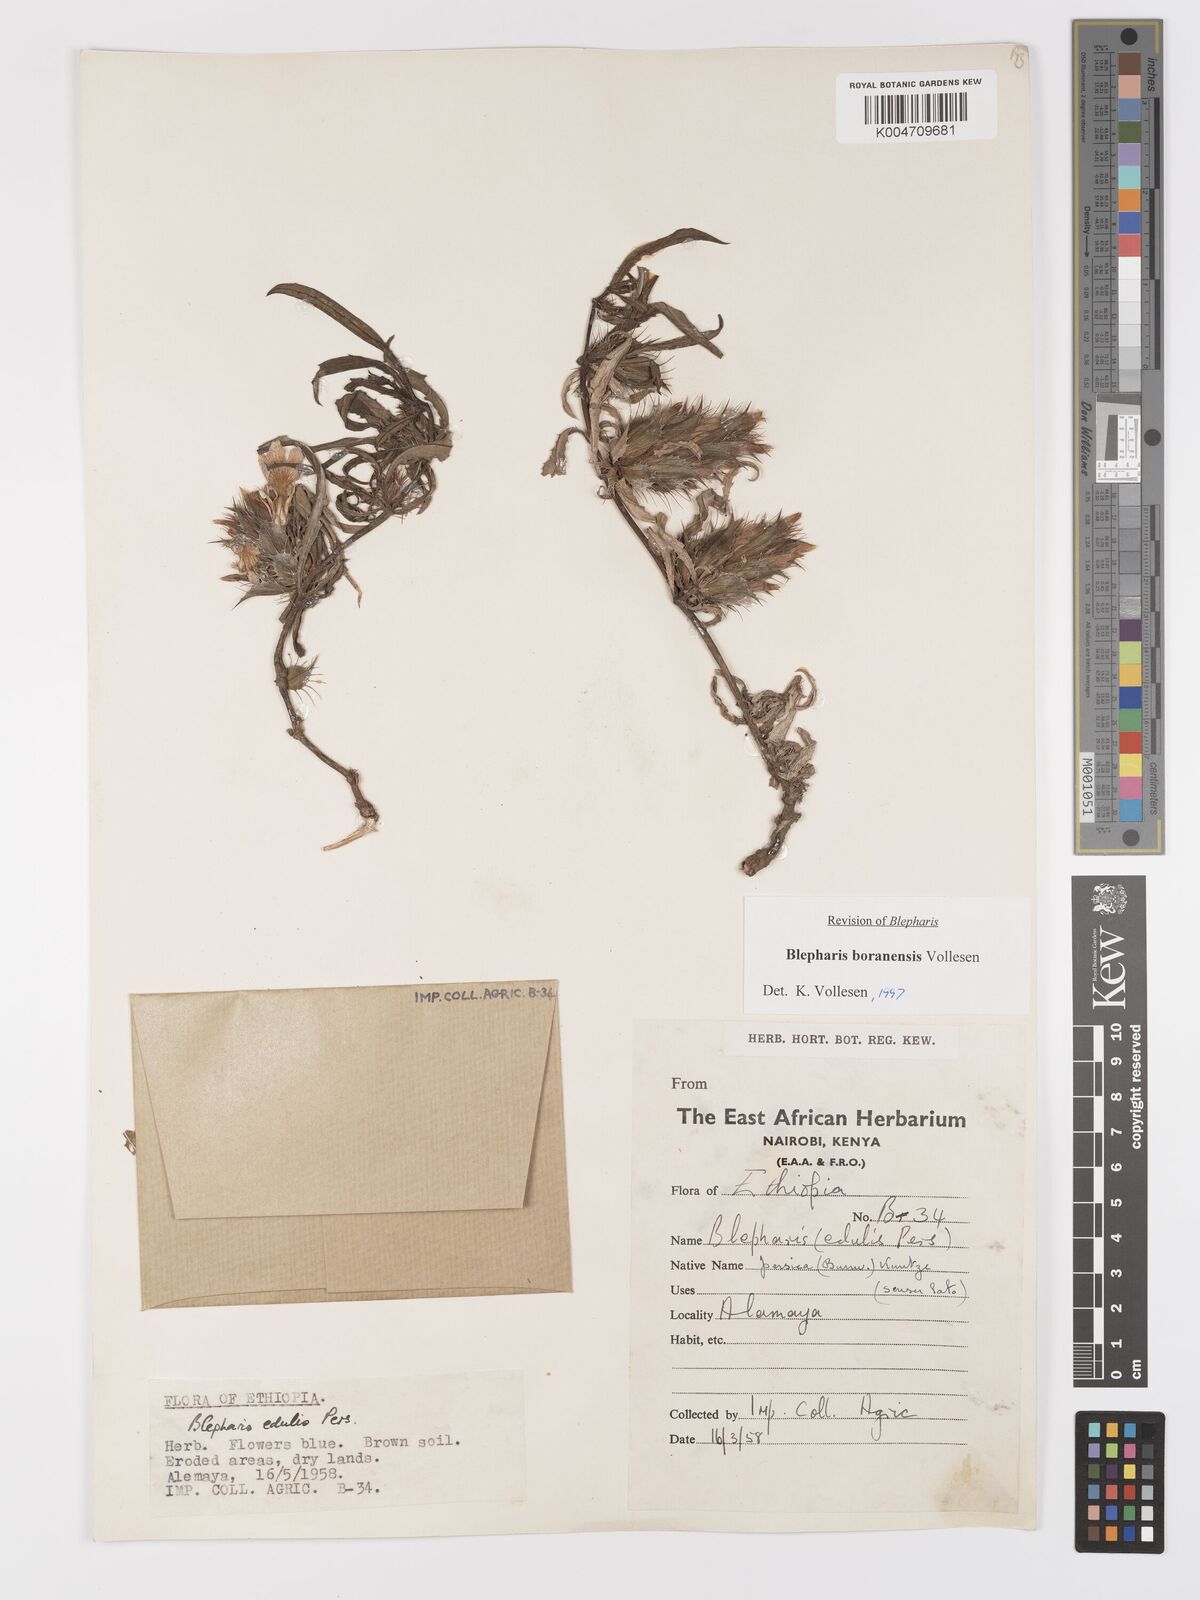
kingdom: Plantae
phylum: Tracheophyta
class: Magnoliopsida
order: Lamiales
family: Acanthaceae
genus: Blepharis
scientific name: Blepharis boranensis
